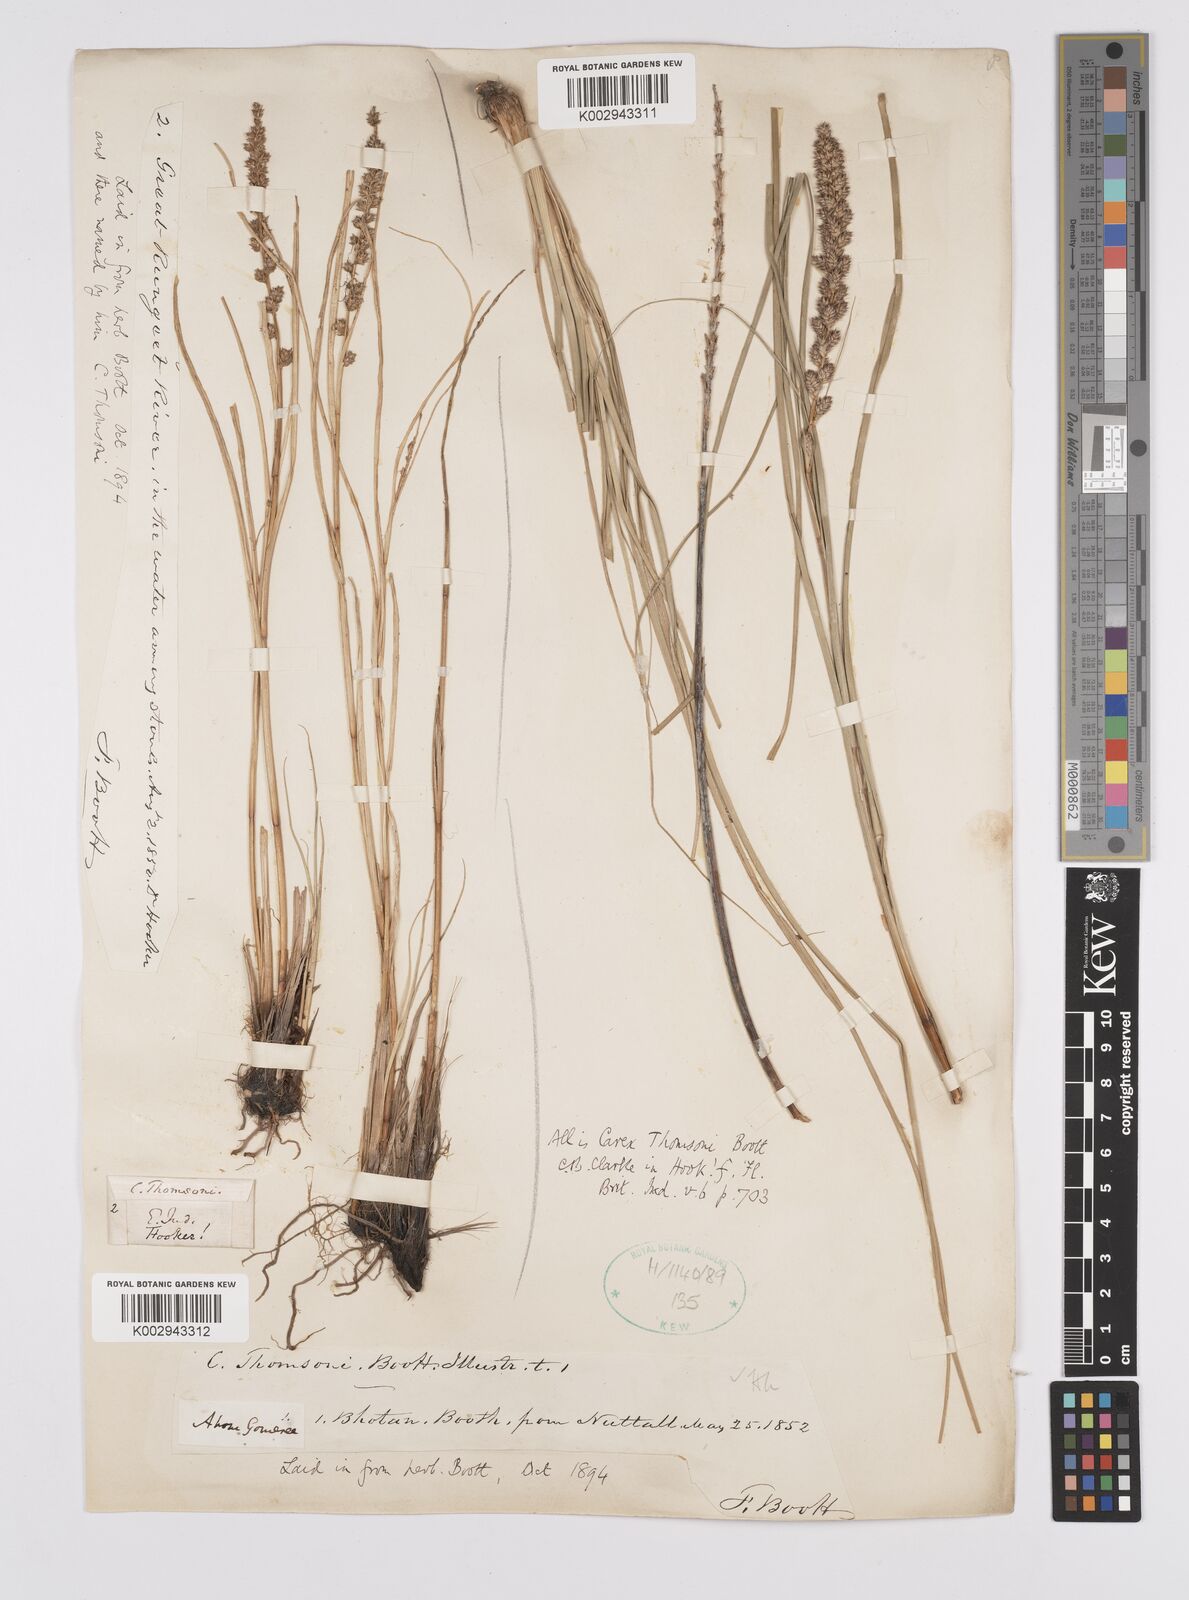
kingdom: Plantae
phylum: Tracheophyta
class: Liliopsida
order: Poales
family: Cyperaceae
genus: Carex
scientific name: Carex thomsonii
